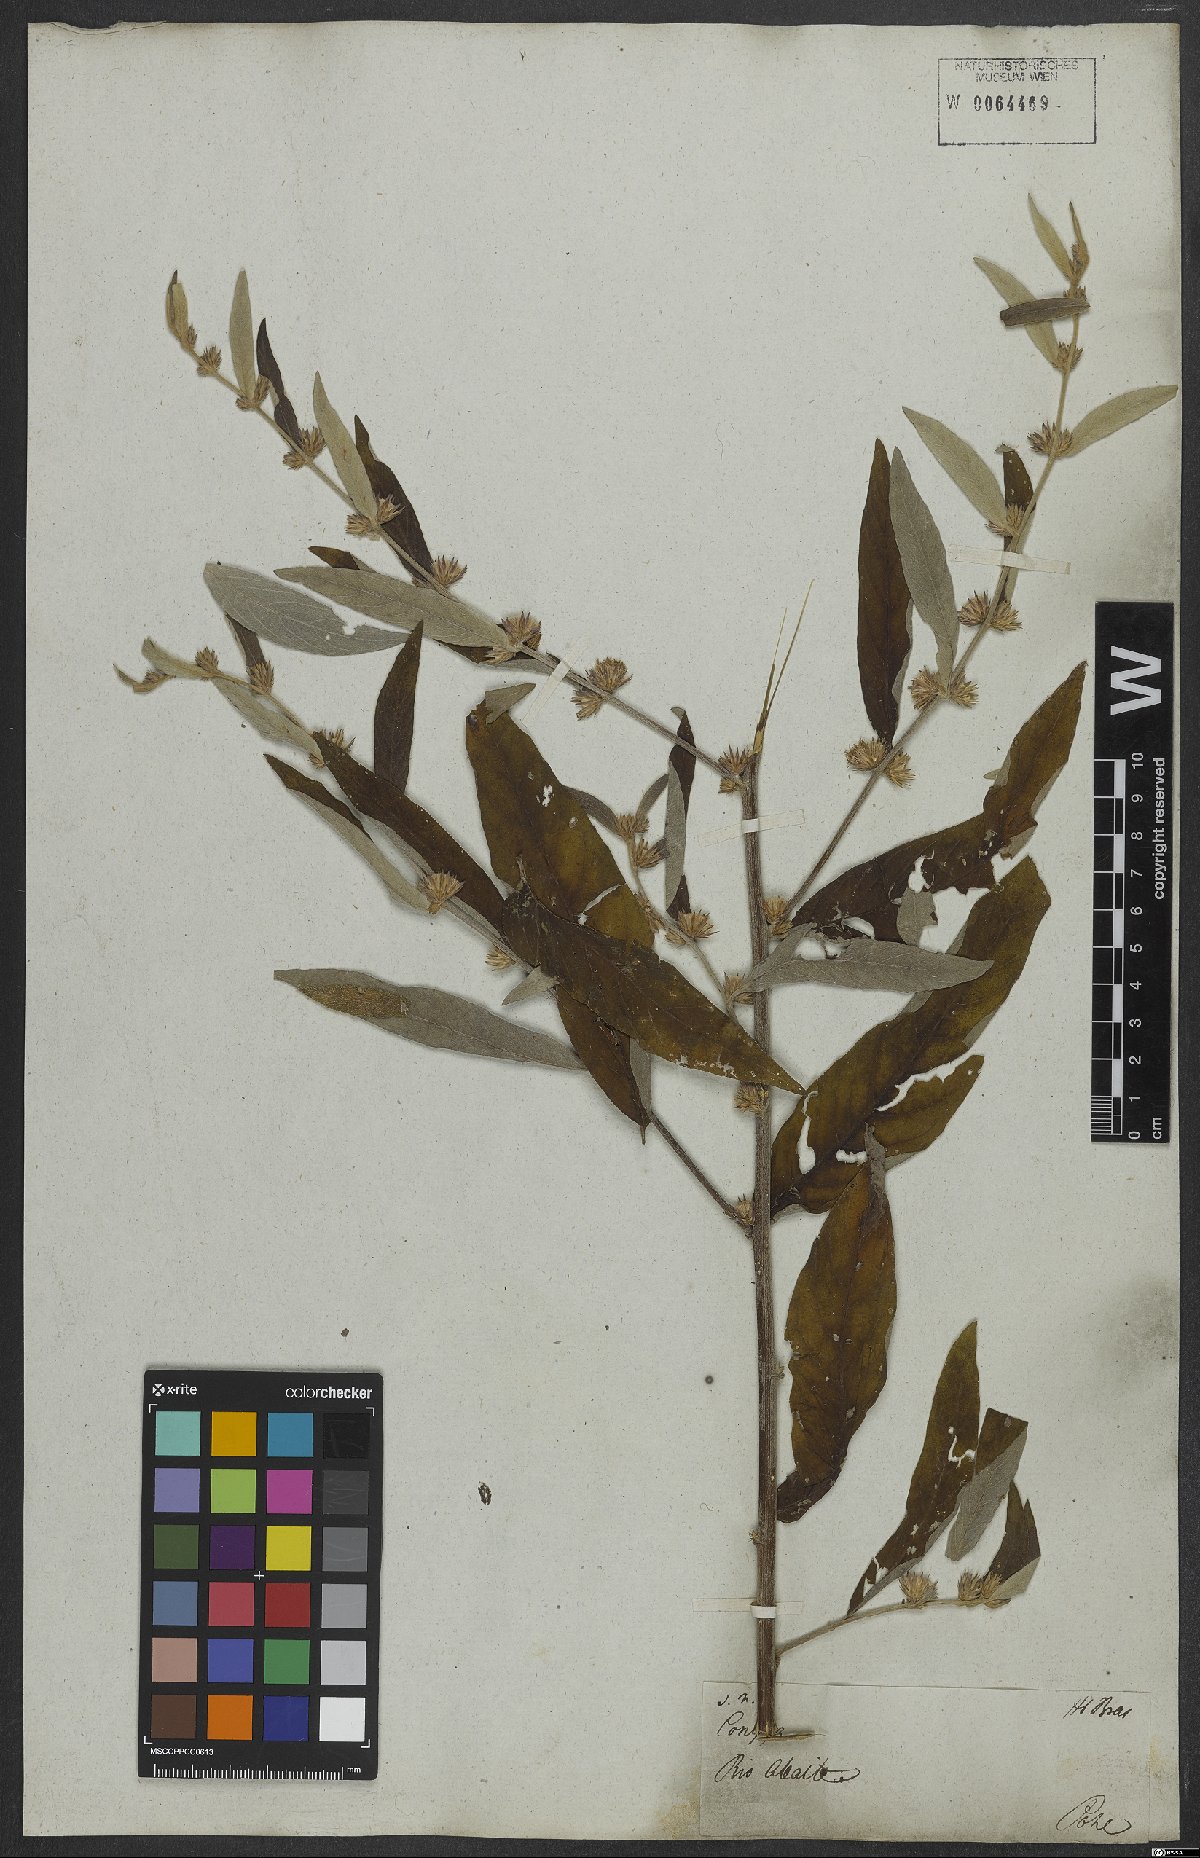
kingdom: Plantae
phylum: Tracheophyta
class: Magnoliopsida
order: Asterales
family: Asteraceae
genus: Lepidaploa
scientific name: Lepidaploa canescens
